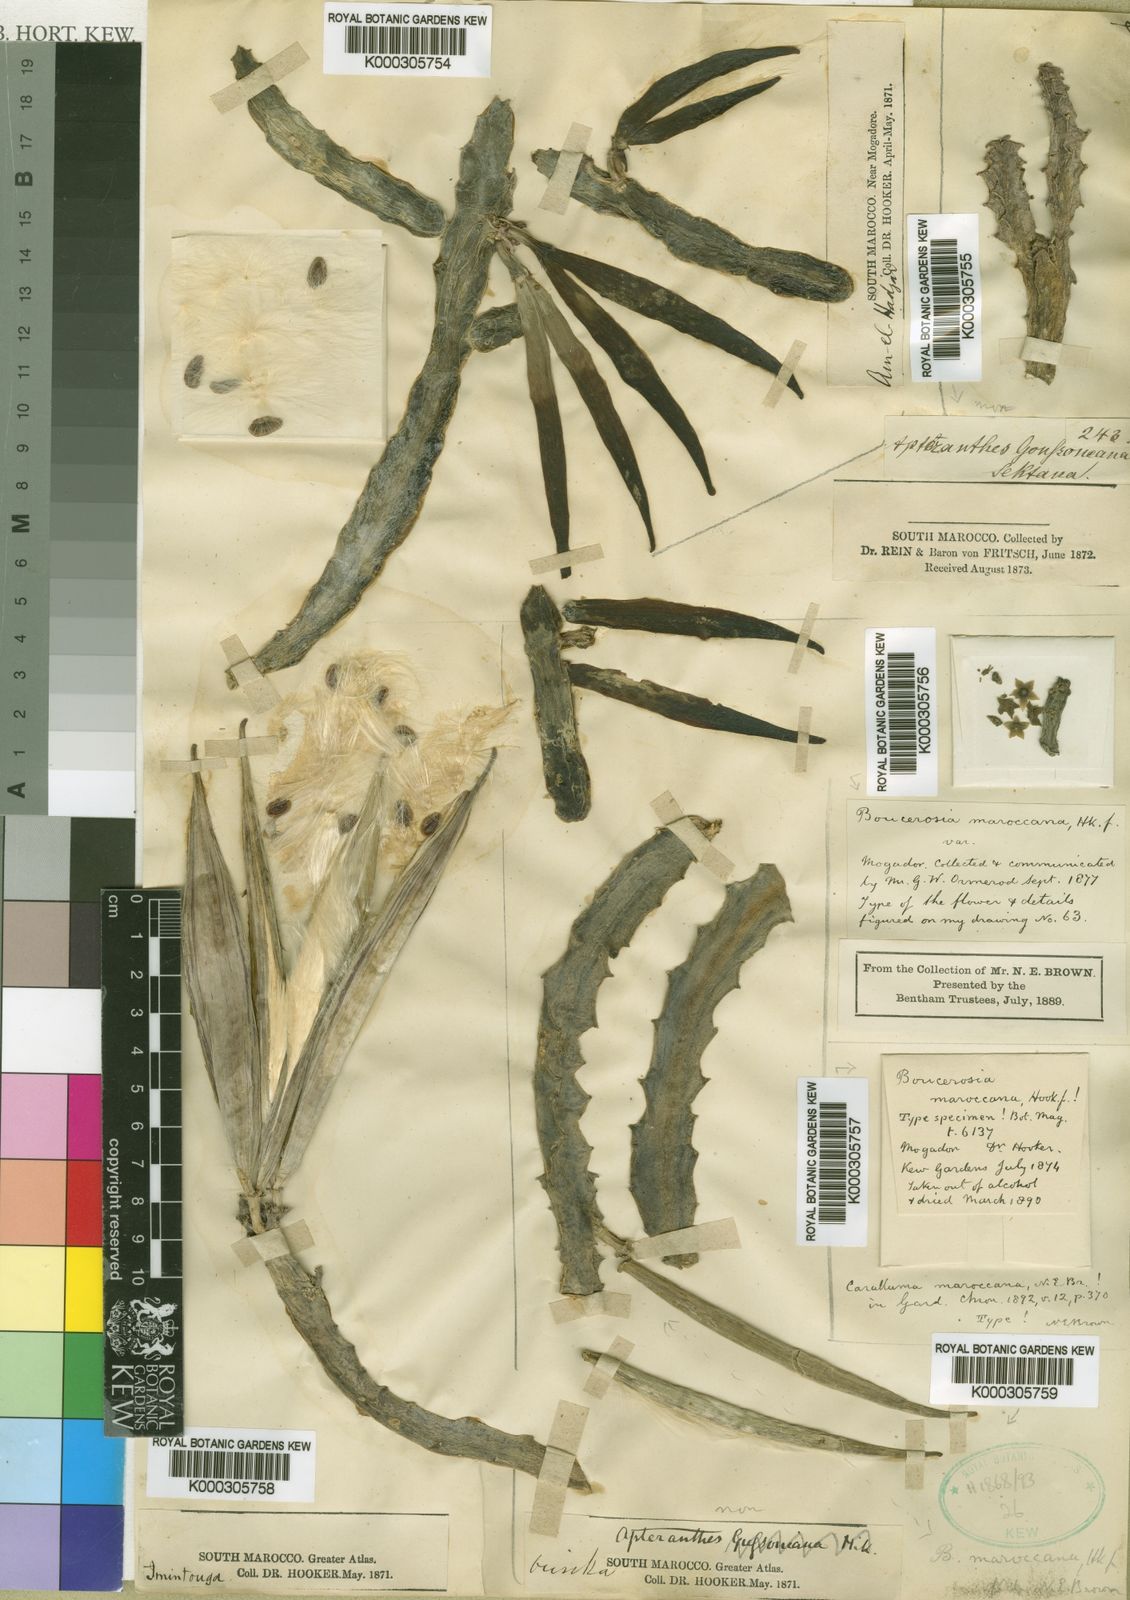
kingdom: Plantae
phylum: Tracheophyta
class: Magnoliopsida
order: Gentianales
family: Apocynaceae
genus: Ceropegia
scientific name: Ceropegia europaea
